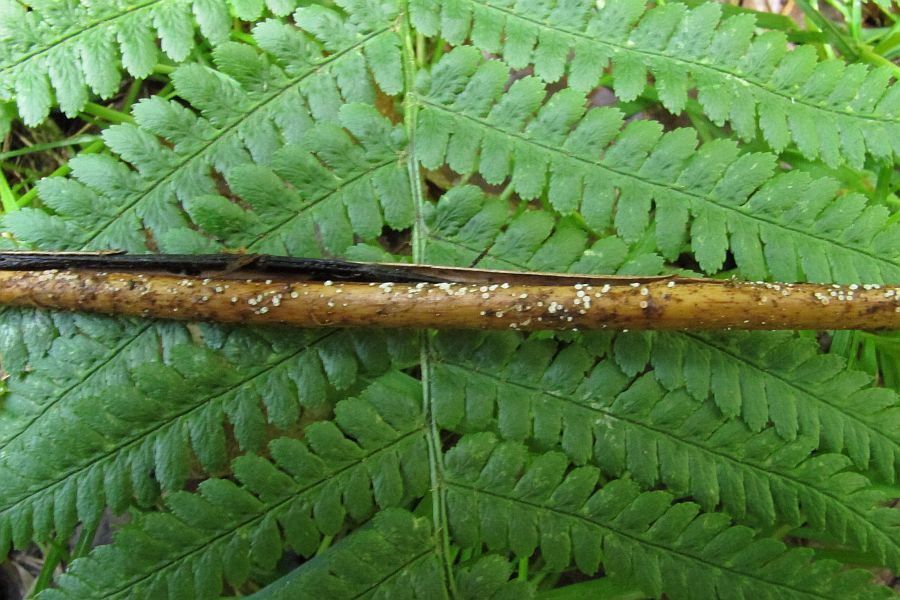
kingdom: Fungi
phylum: Ascomycota
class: Leotiomycetes
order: Helotiales
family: Pezizellaceae
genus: Psilachnum
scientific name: Psilachnum chrysostigmum
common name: gulnende hårskive
